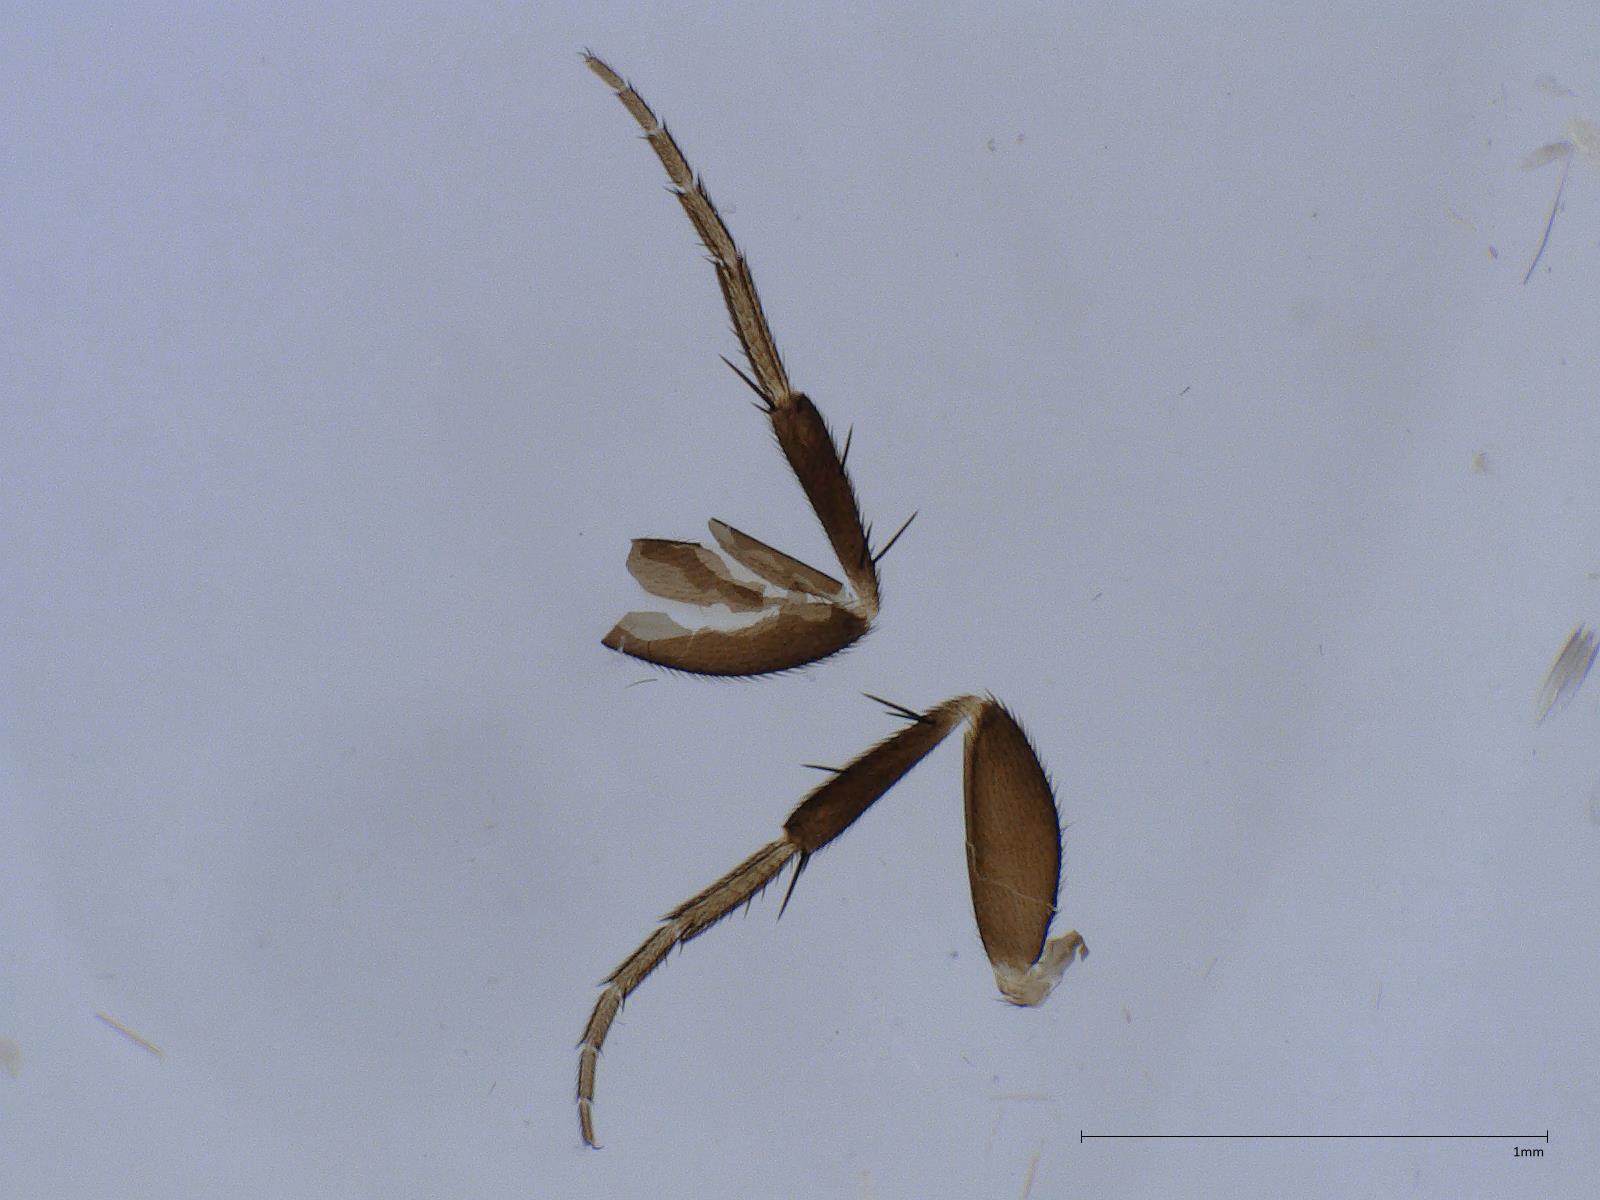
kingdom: Animalia
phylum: Arthropoda
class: Insecta
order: Diptera
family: Phoridae
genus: Conicera
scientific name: Conicera floricola
